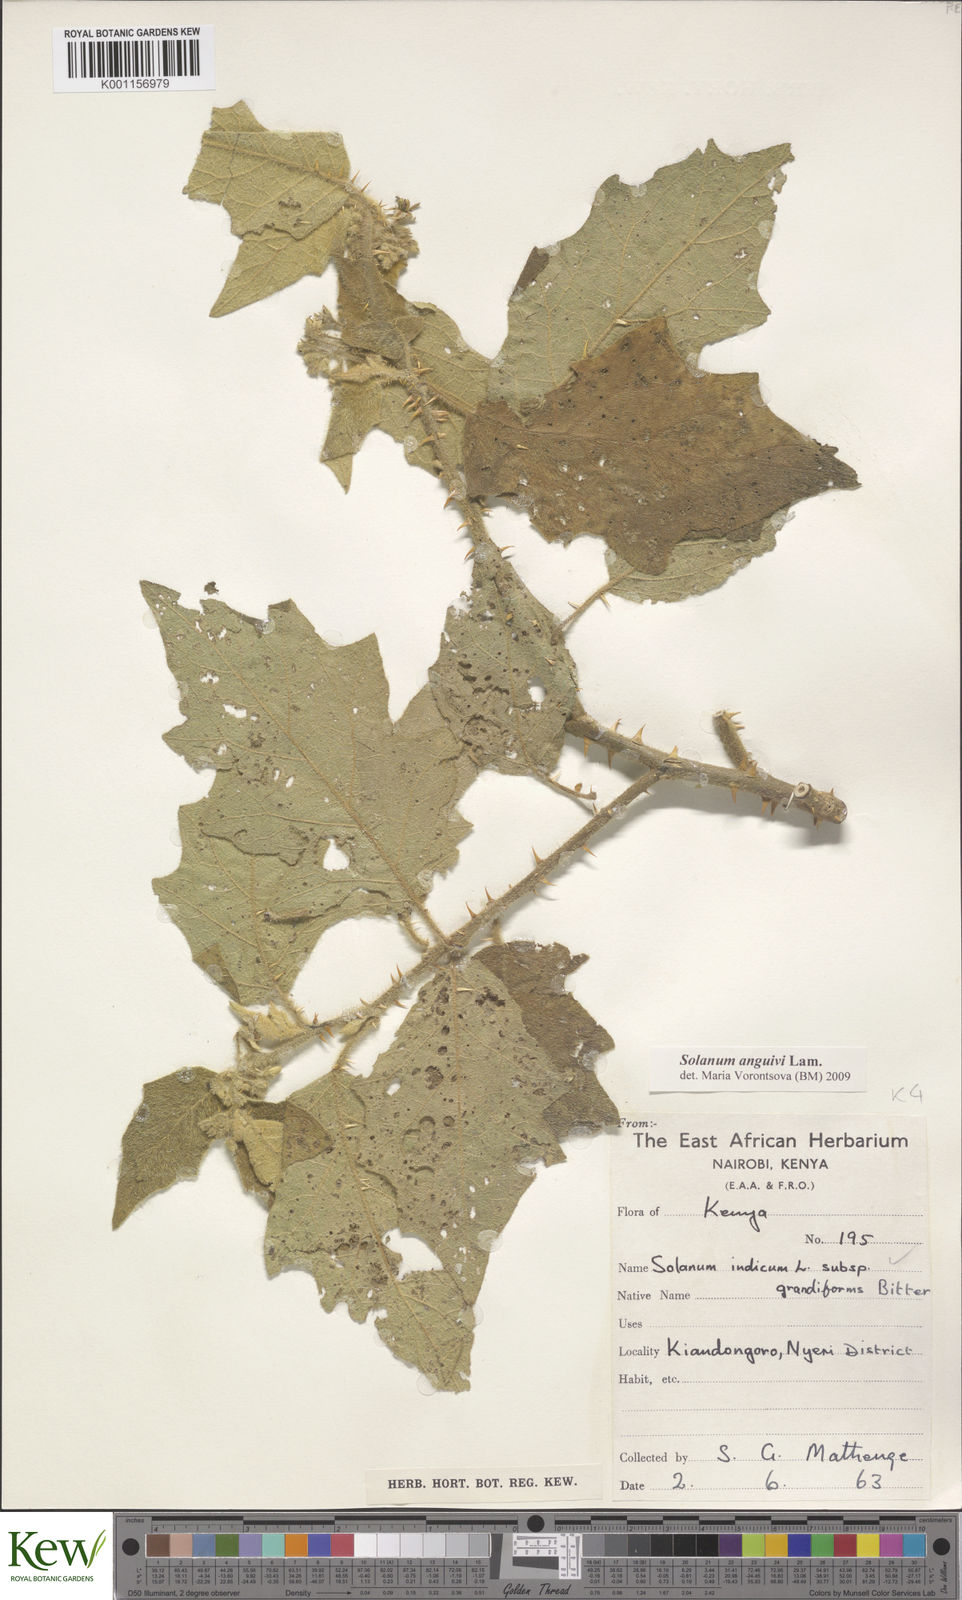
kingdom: Plantae
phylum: Tracheophyta
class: Magnoliopsida
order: Solanales
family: Solanaceae
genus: Solanum
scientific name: Solanum anguivi
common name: Forest bitterberry
